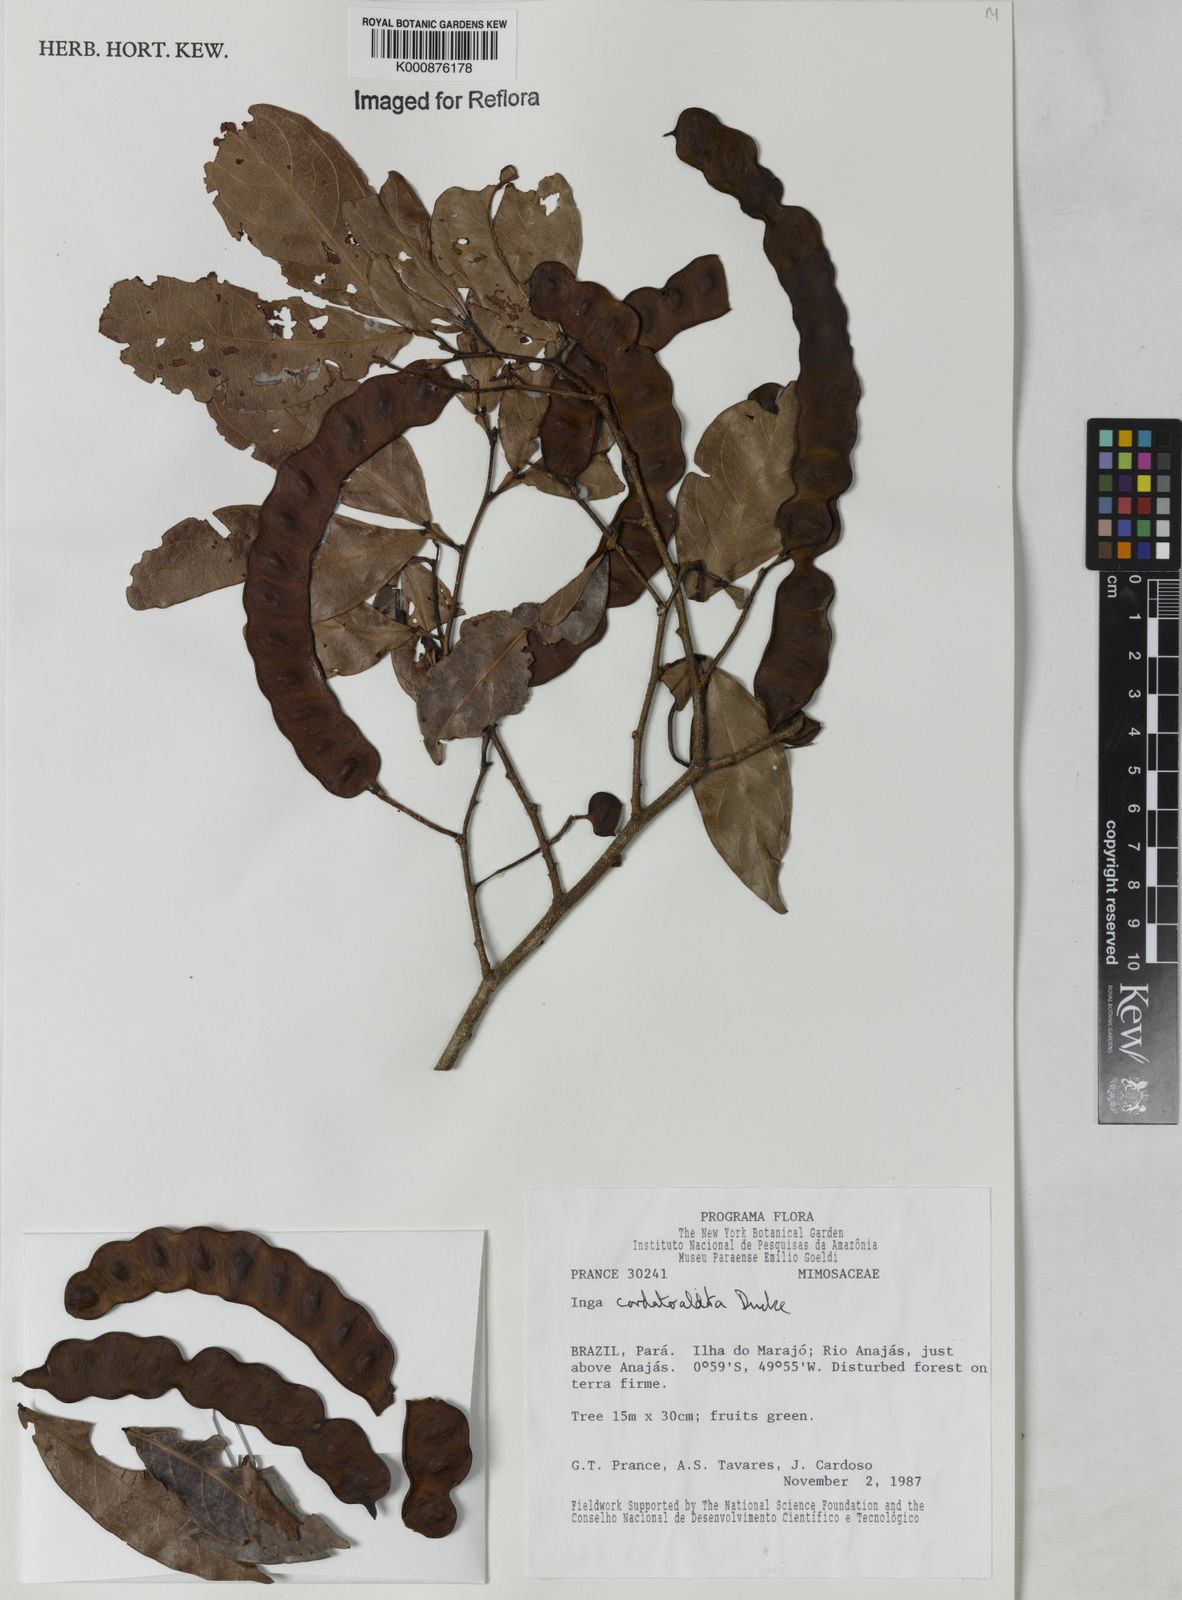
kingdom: Plantae
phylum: Tracheophyta
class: Magnoliopsida
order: Fabales
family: Fabaceae
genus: Inga
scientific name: Inga cordatoalata
